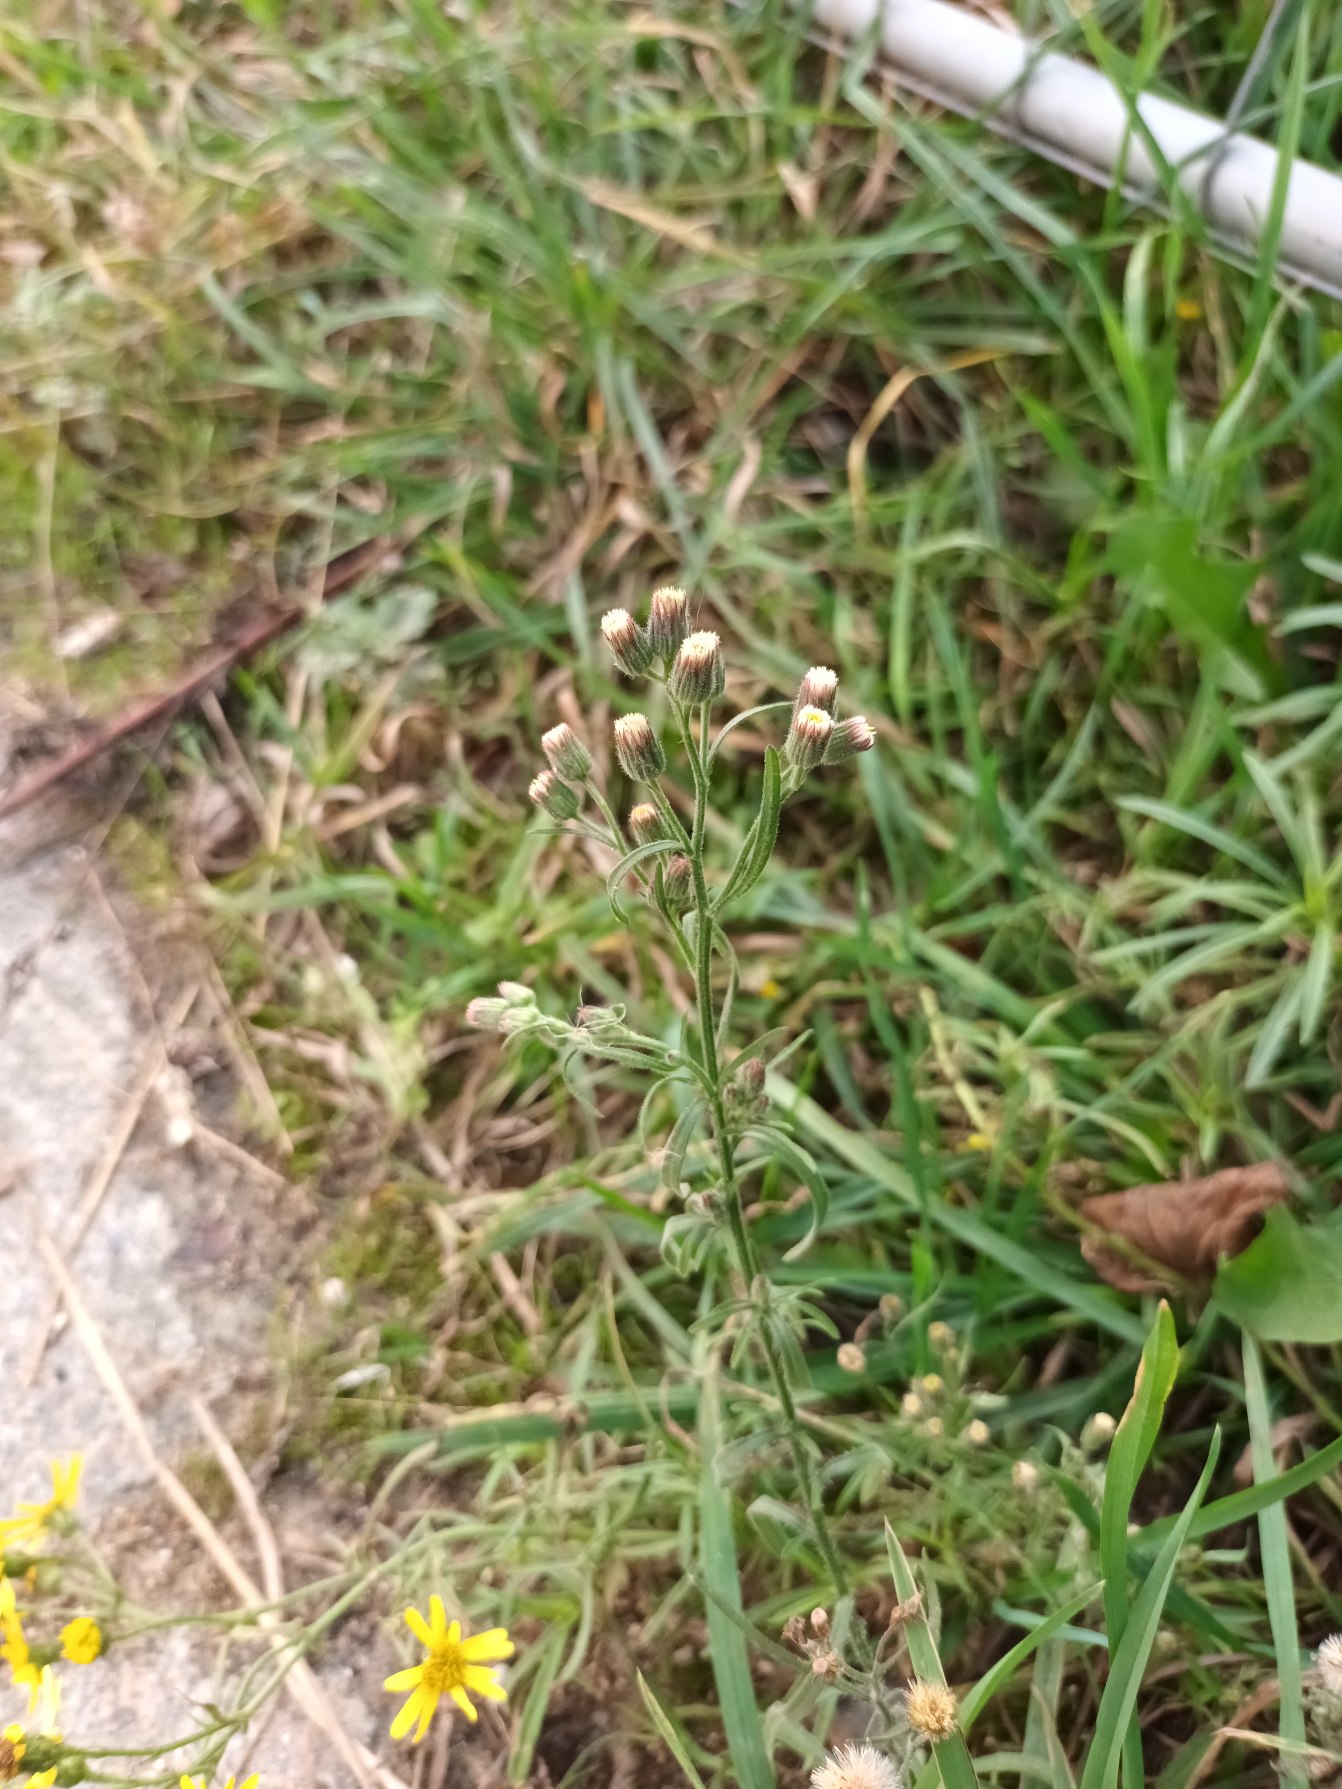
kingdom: Plantae
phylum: Tracheophyta
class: Magnoliopsida
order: Asterales
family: Asteraceae
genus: Erigeron
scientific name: Erigeron bonariensis
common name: Håret bakkestjerne
